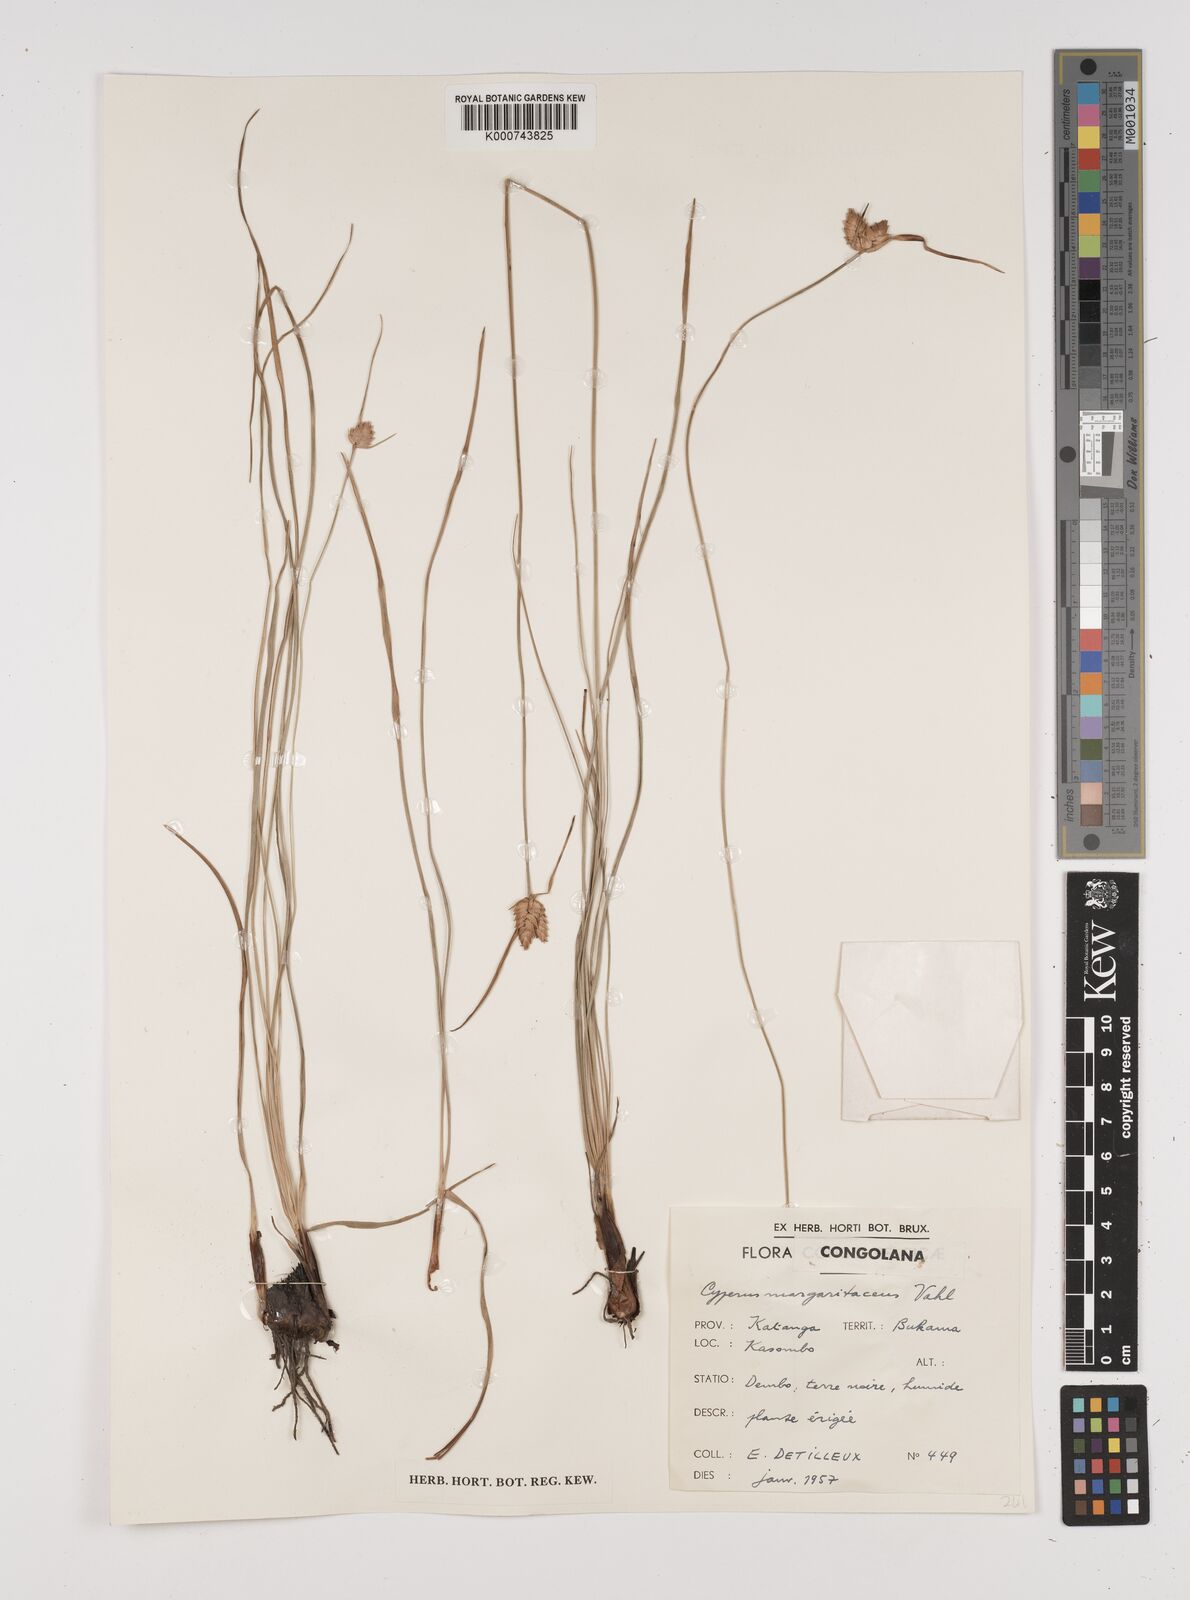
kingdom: Plantae
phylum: Tracheophyta
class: Liliopsida
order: Poales
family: Cyperaceae
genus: Cyperus
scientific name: Cyperus margaritaceus
